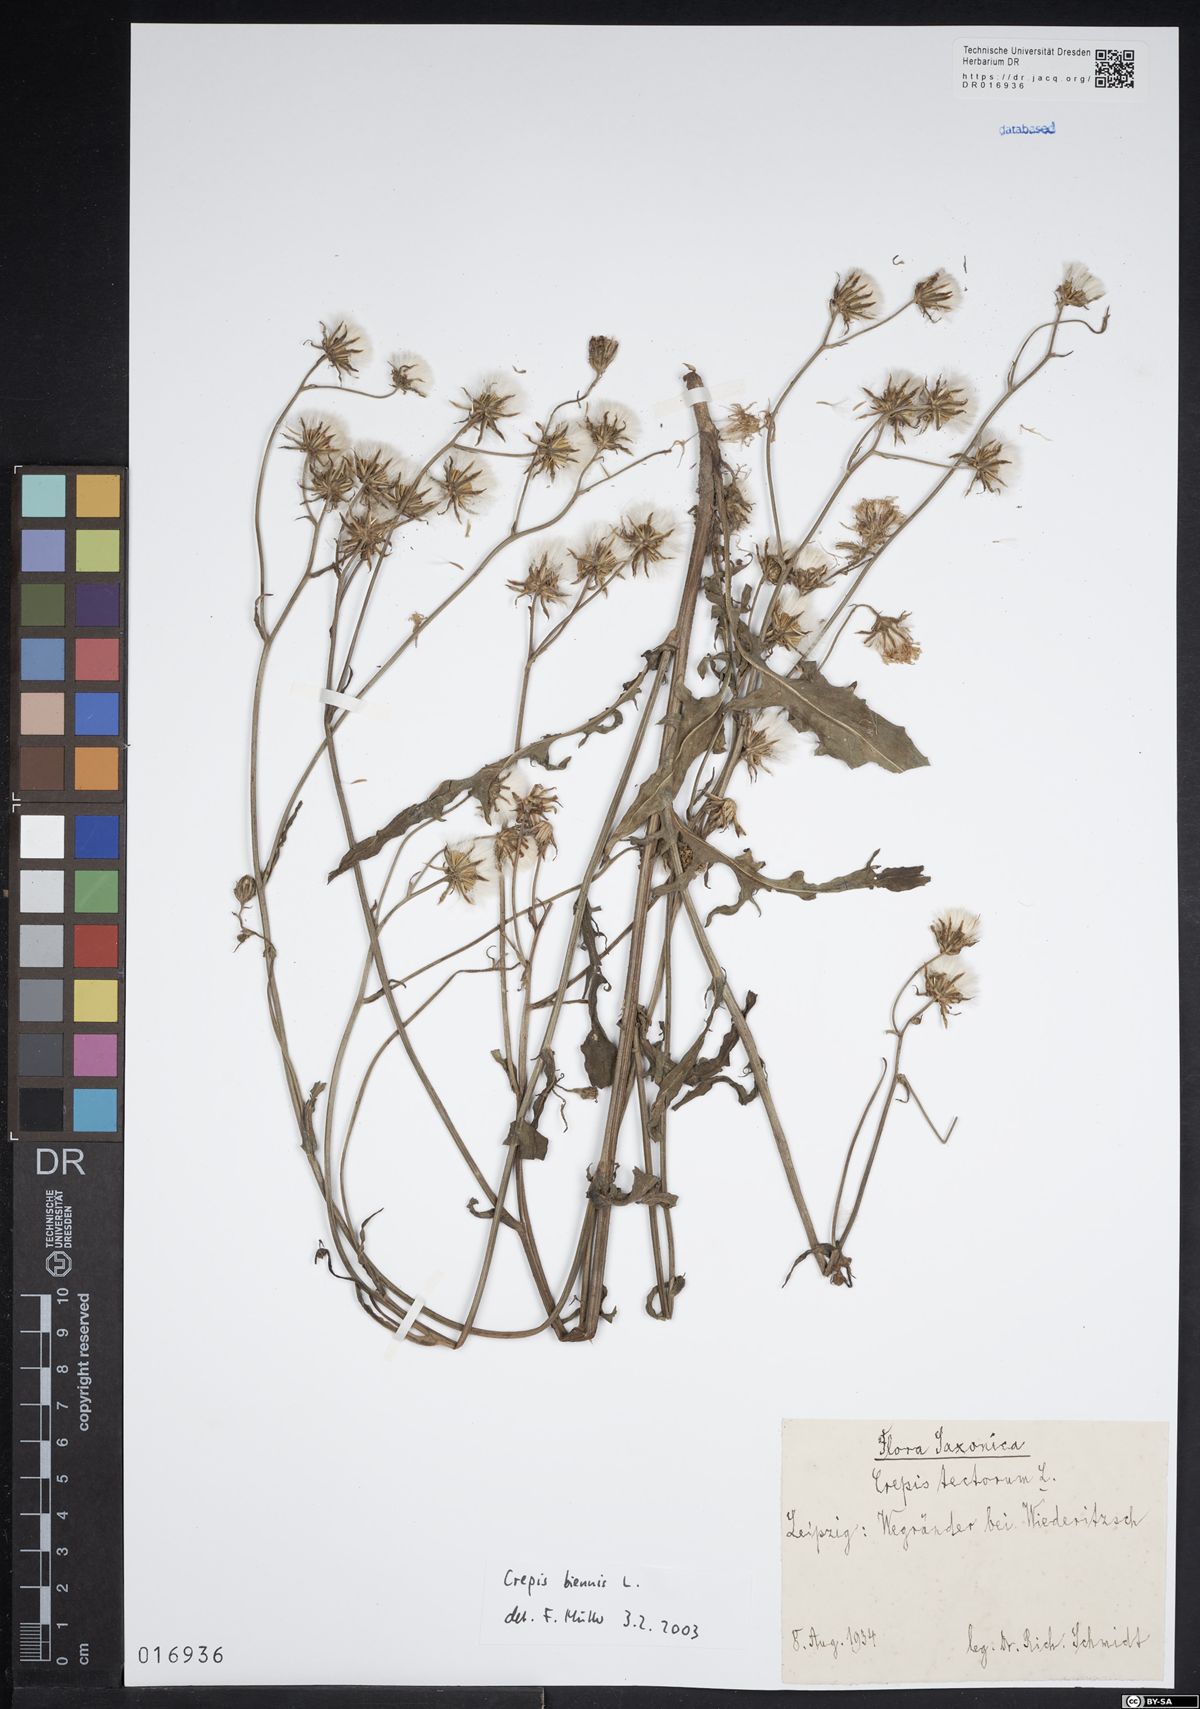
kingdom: Plantae
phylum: Tracheophyta
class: Magnoliopsida
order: Asterales
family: Asteraceae
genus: Crepis
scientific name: Crepis biennis
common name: Rough hawk's-beard
